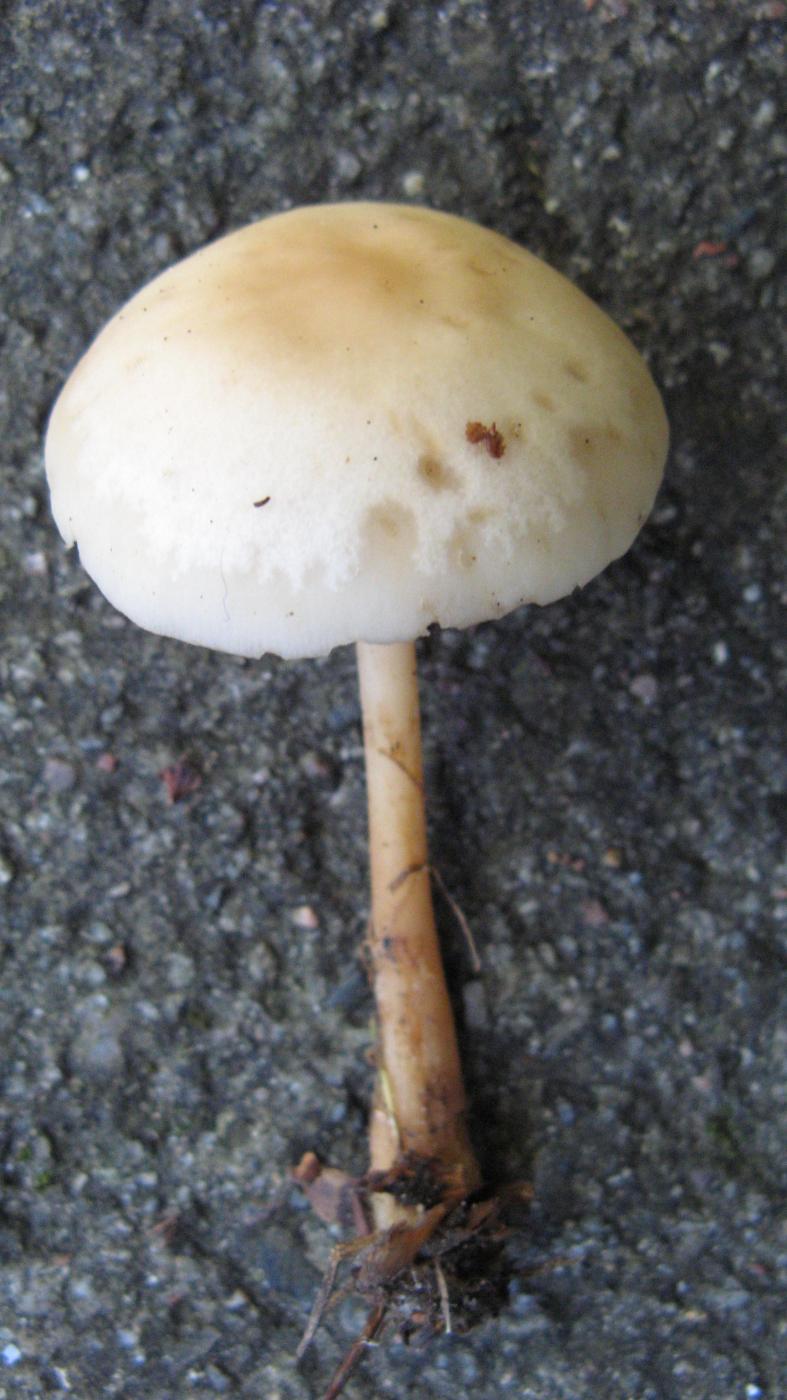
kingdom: Fungi
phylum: Basidiomycota
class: Agaricomycetes
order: Agaricales
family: Omphalotaceae
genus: Gymnopus
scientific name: Gymnopus dryophilus
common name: løv-fladhat
